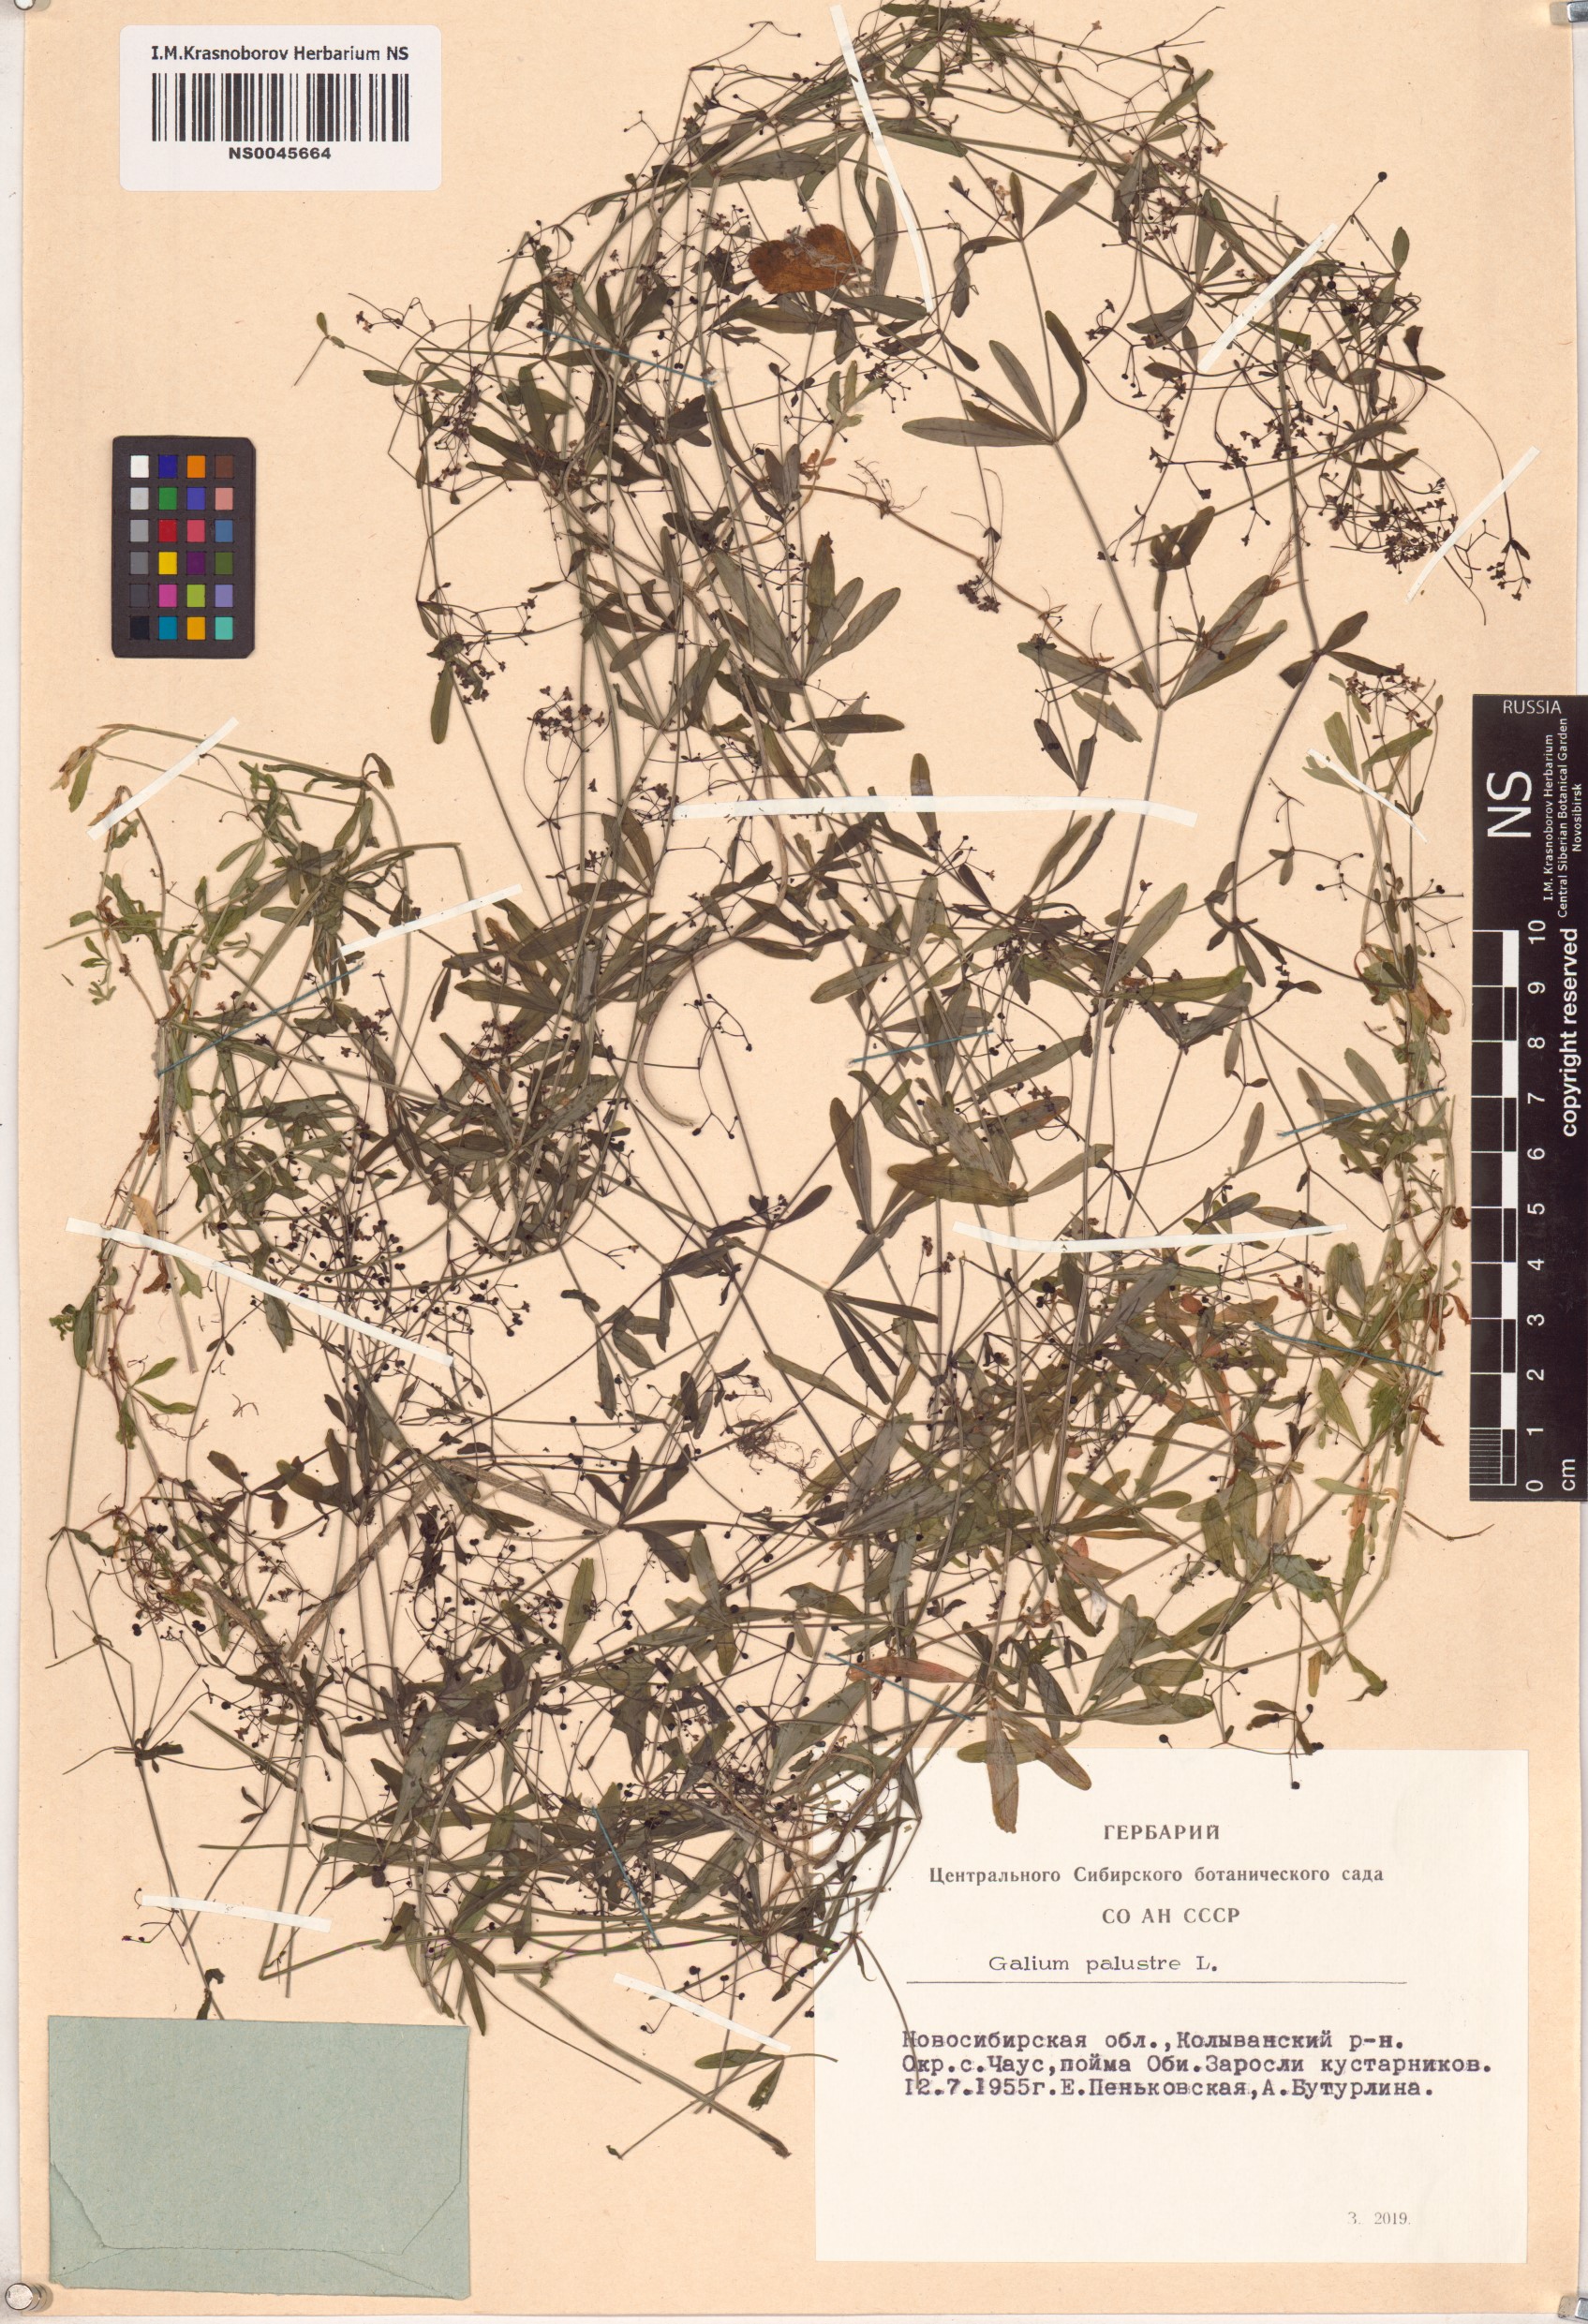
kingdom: Plantae
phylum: Tracheophyta
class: Magnoliopsida
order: Gentianales
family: Rubiaceae
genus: Galium
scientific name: Galium palustre
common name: Common marsh-bedstraw
